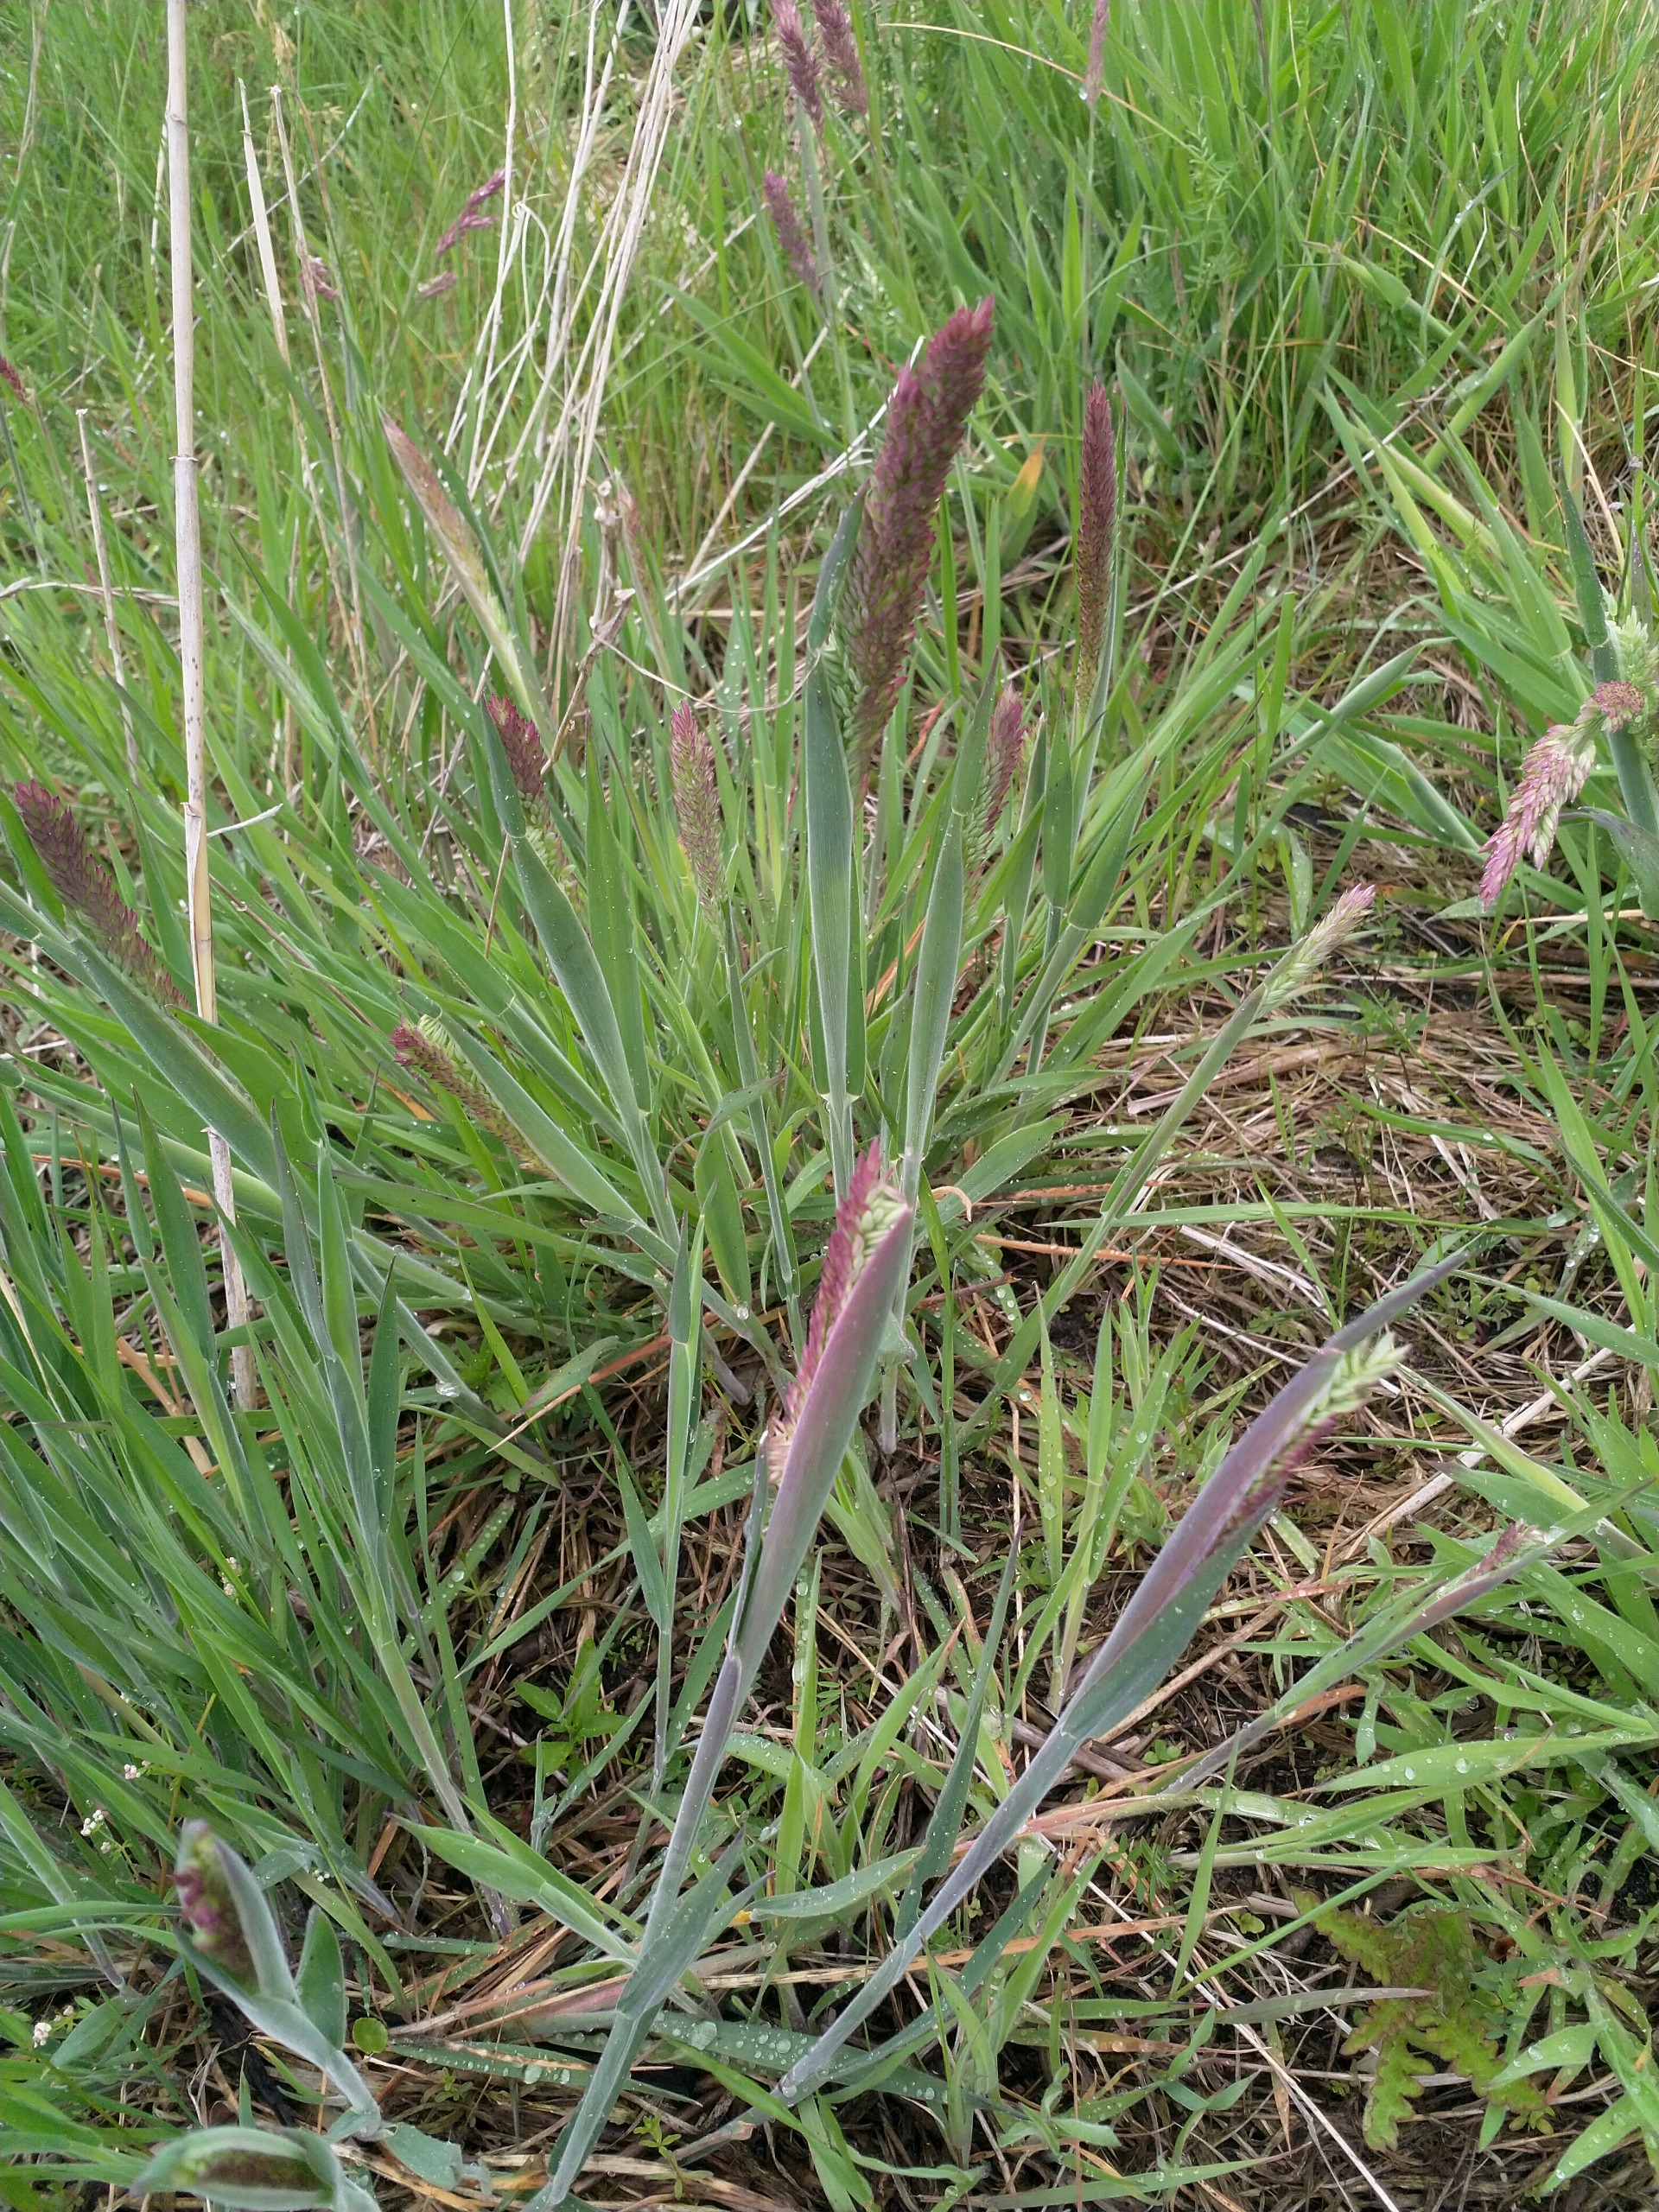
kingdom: Plantae
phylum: Tracheophyta
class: Liliopsida
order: Poales
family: Poaceae
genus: Holcus
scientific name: Holcus lanatus
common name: Fløjlsgræs
